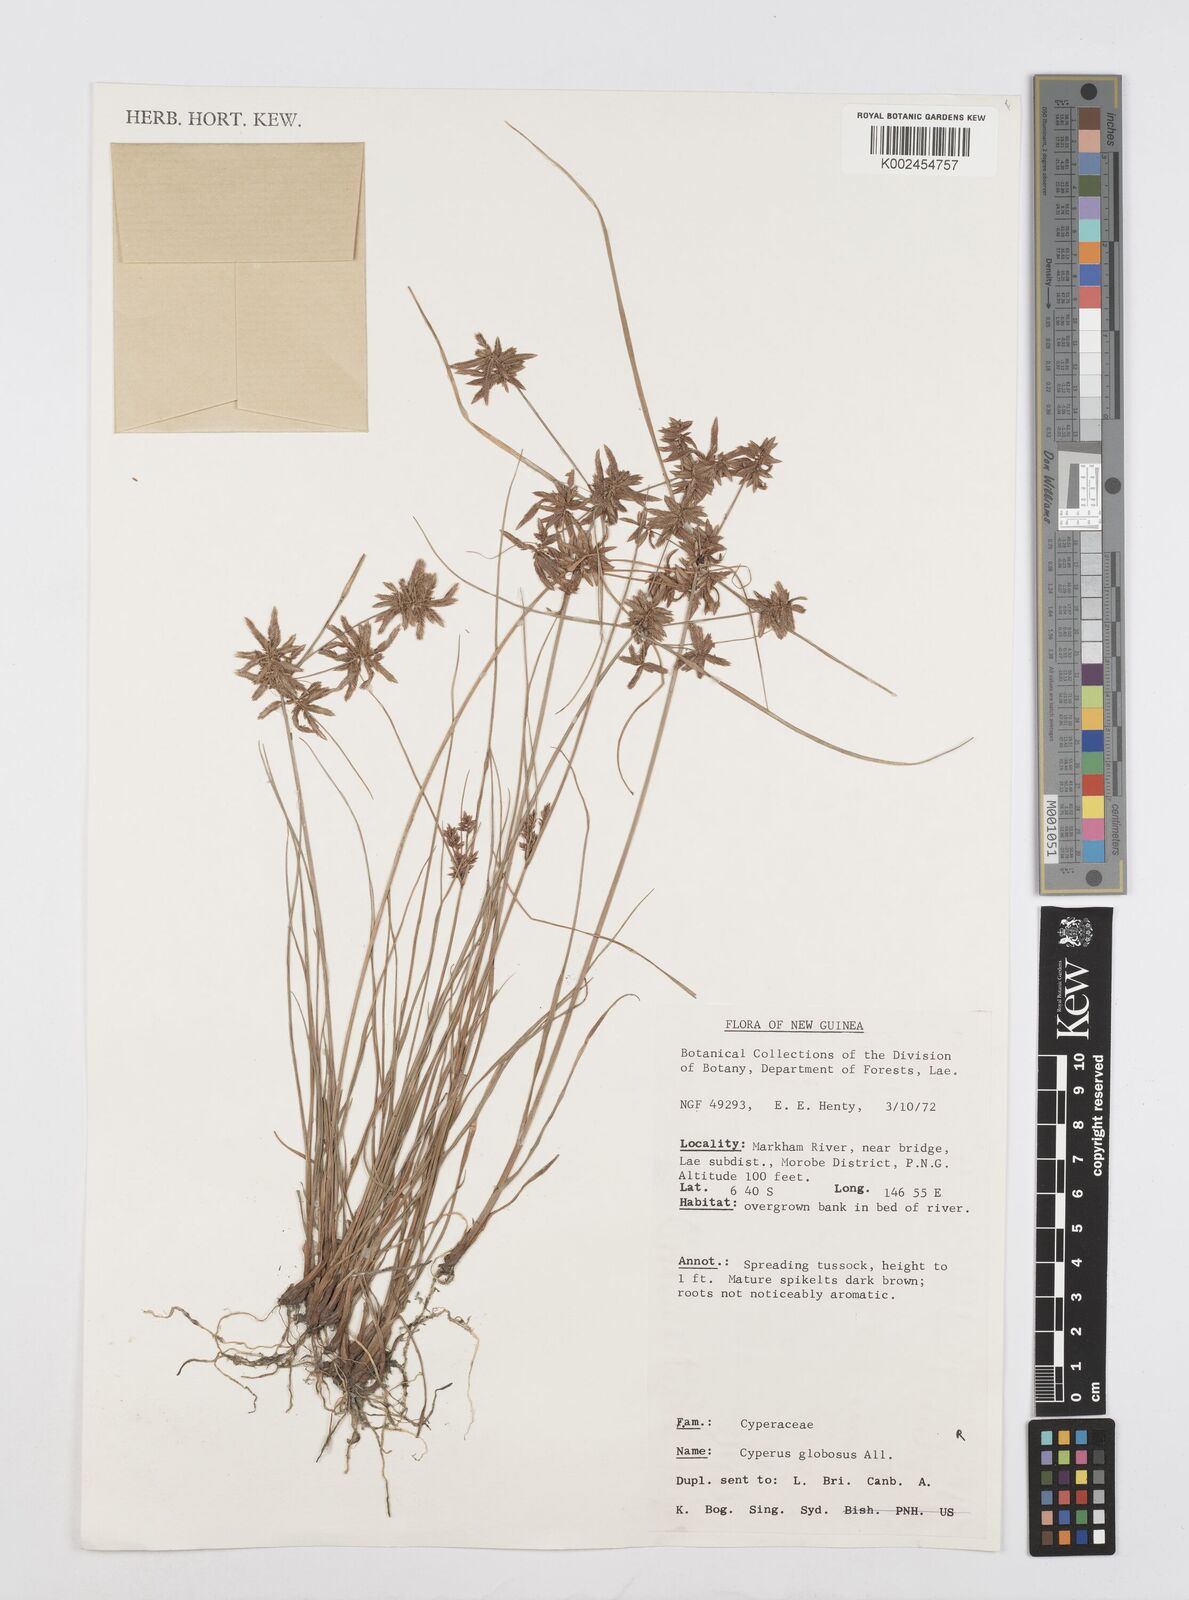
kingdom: Plantae
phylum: Tracheophyta
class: Liliopsida
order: Poales
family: Cyperaceae
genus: Cyperus
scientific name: Cyperus flavidus
